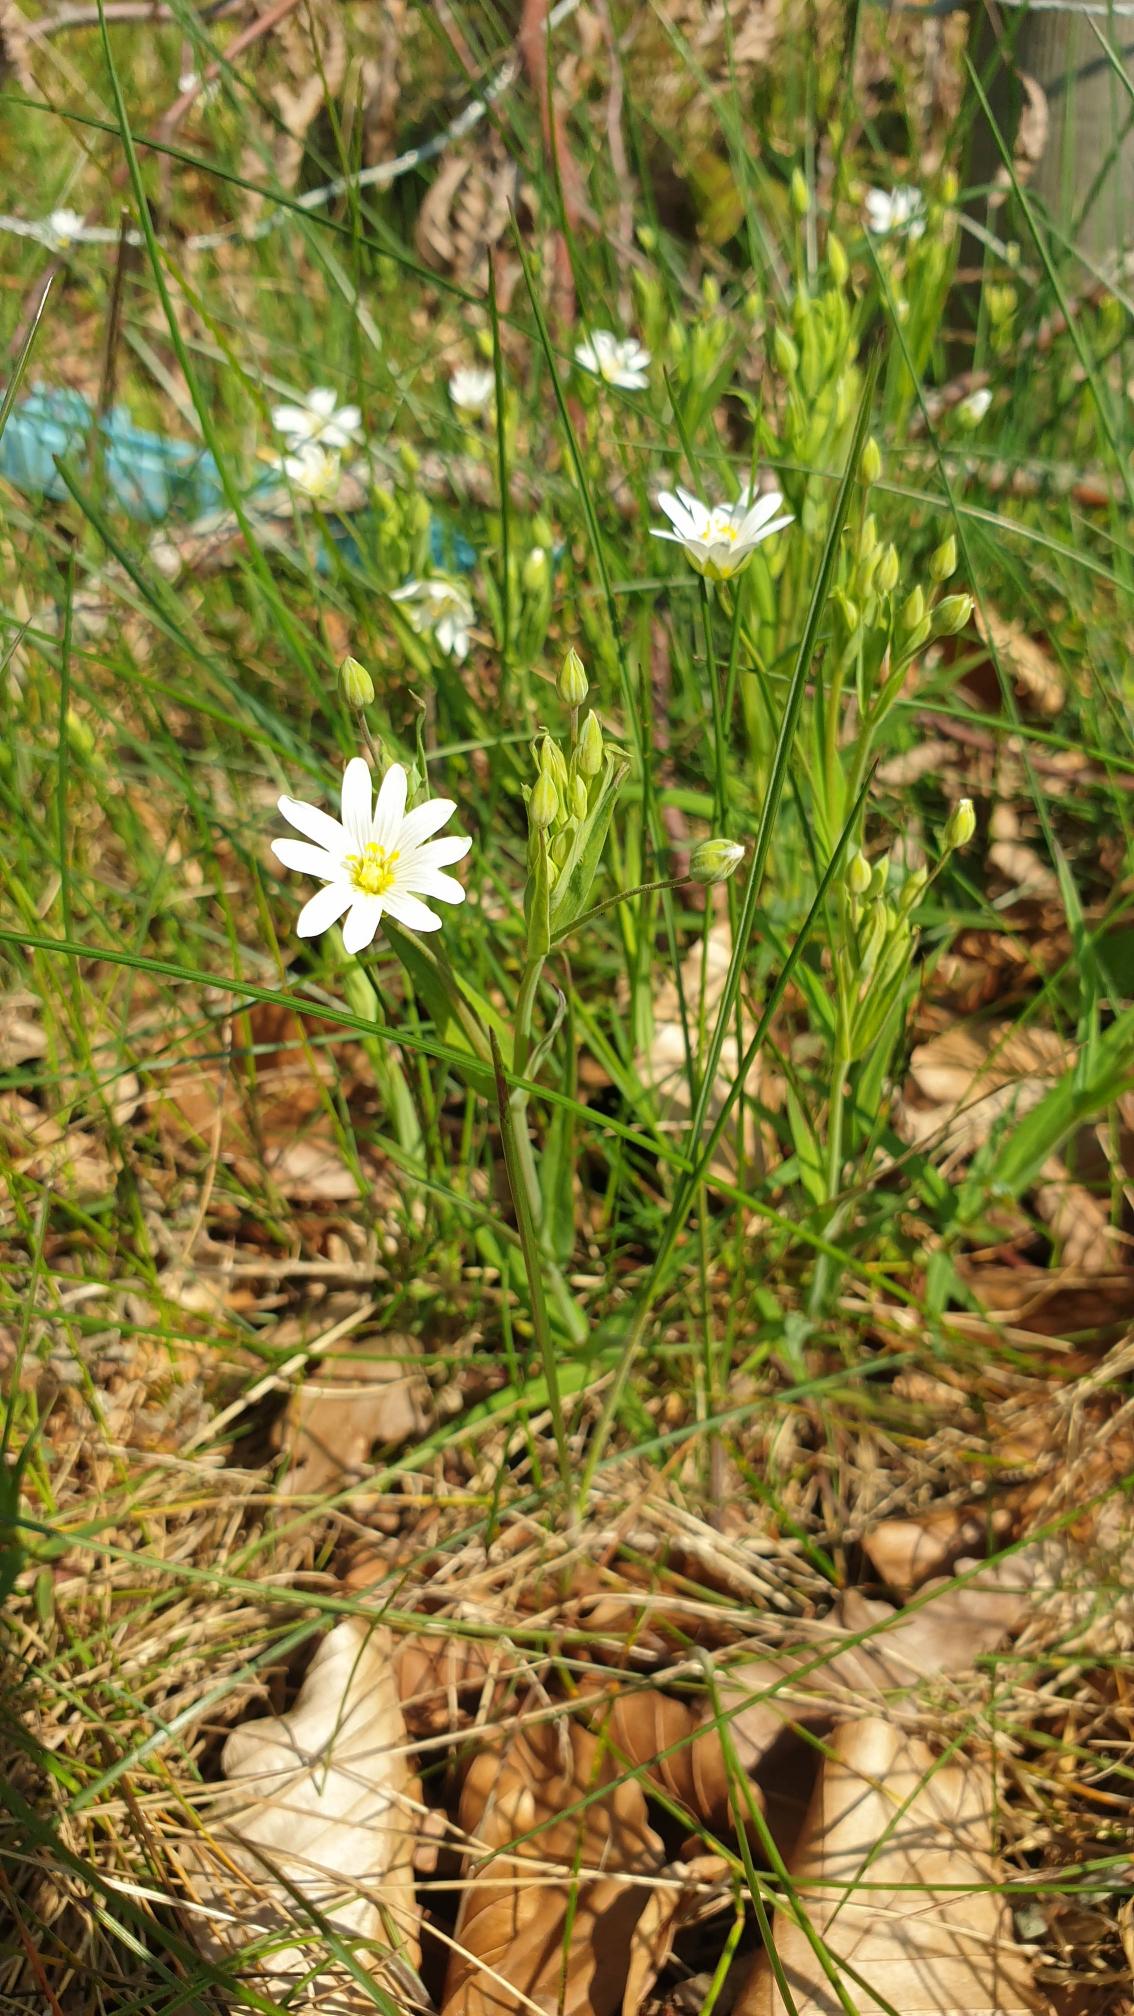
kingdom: Plantae
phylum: Tracheophyta
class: Magnoliopsida
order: Caryophyllales
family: Caryophyllaceae
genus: Rabelera
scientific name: Rabelera holostea
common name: Stor fladstjerne
